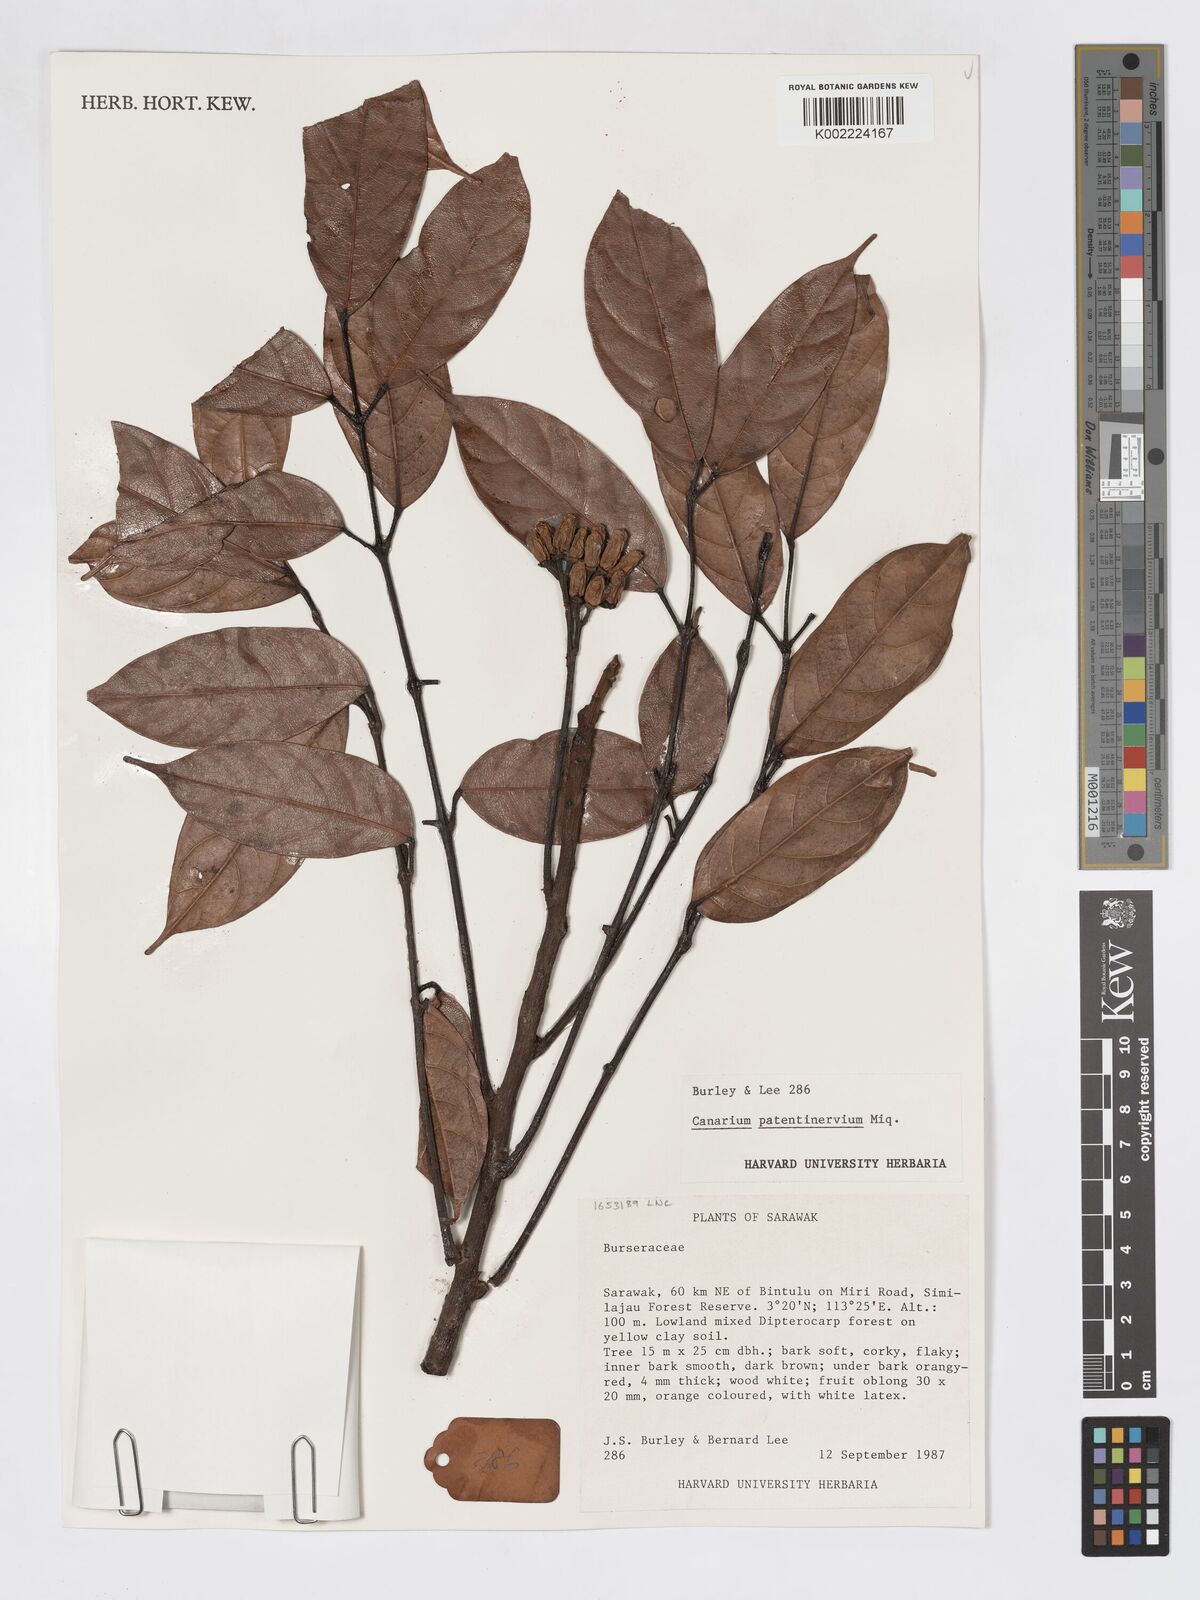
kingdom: Plantae
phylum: Tracheophyta
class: Magnoliopsida
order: Sapindales
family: Burseraceae
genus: Canarium
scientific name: Canarium patentinervium
